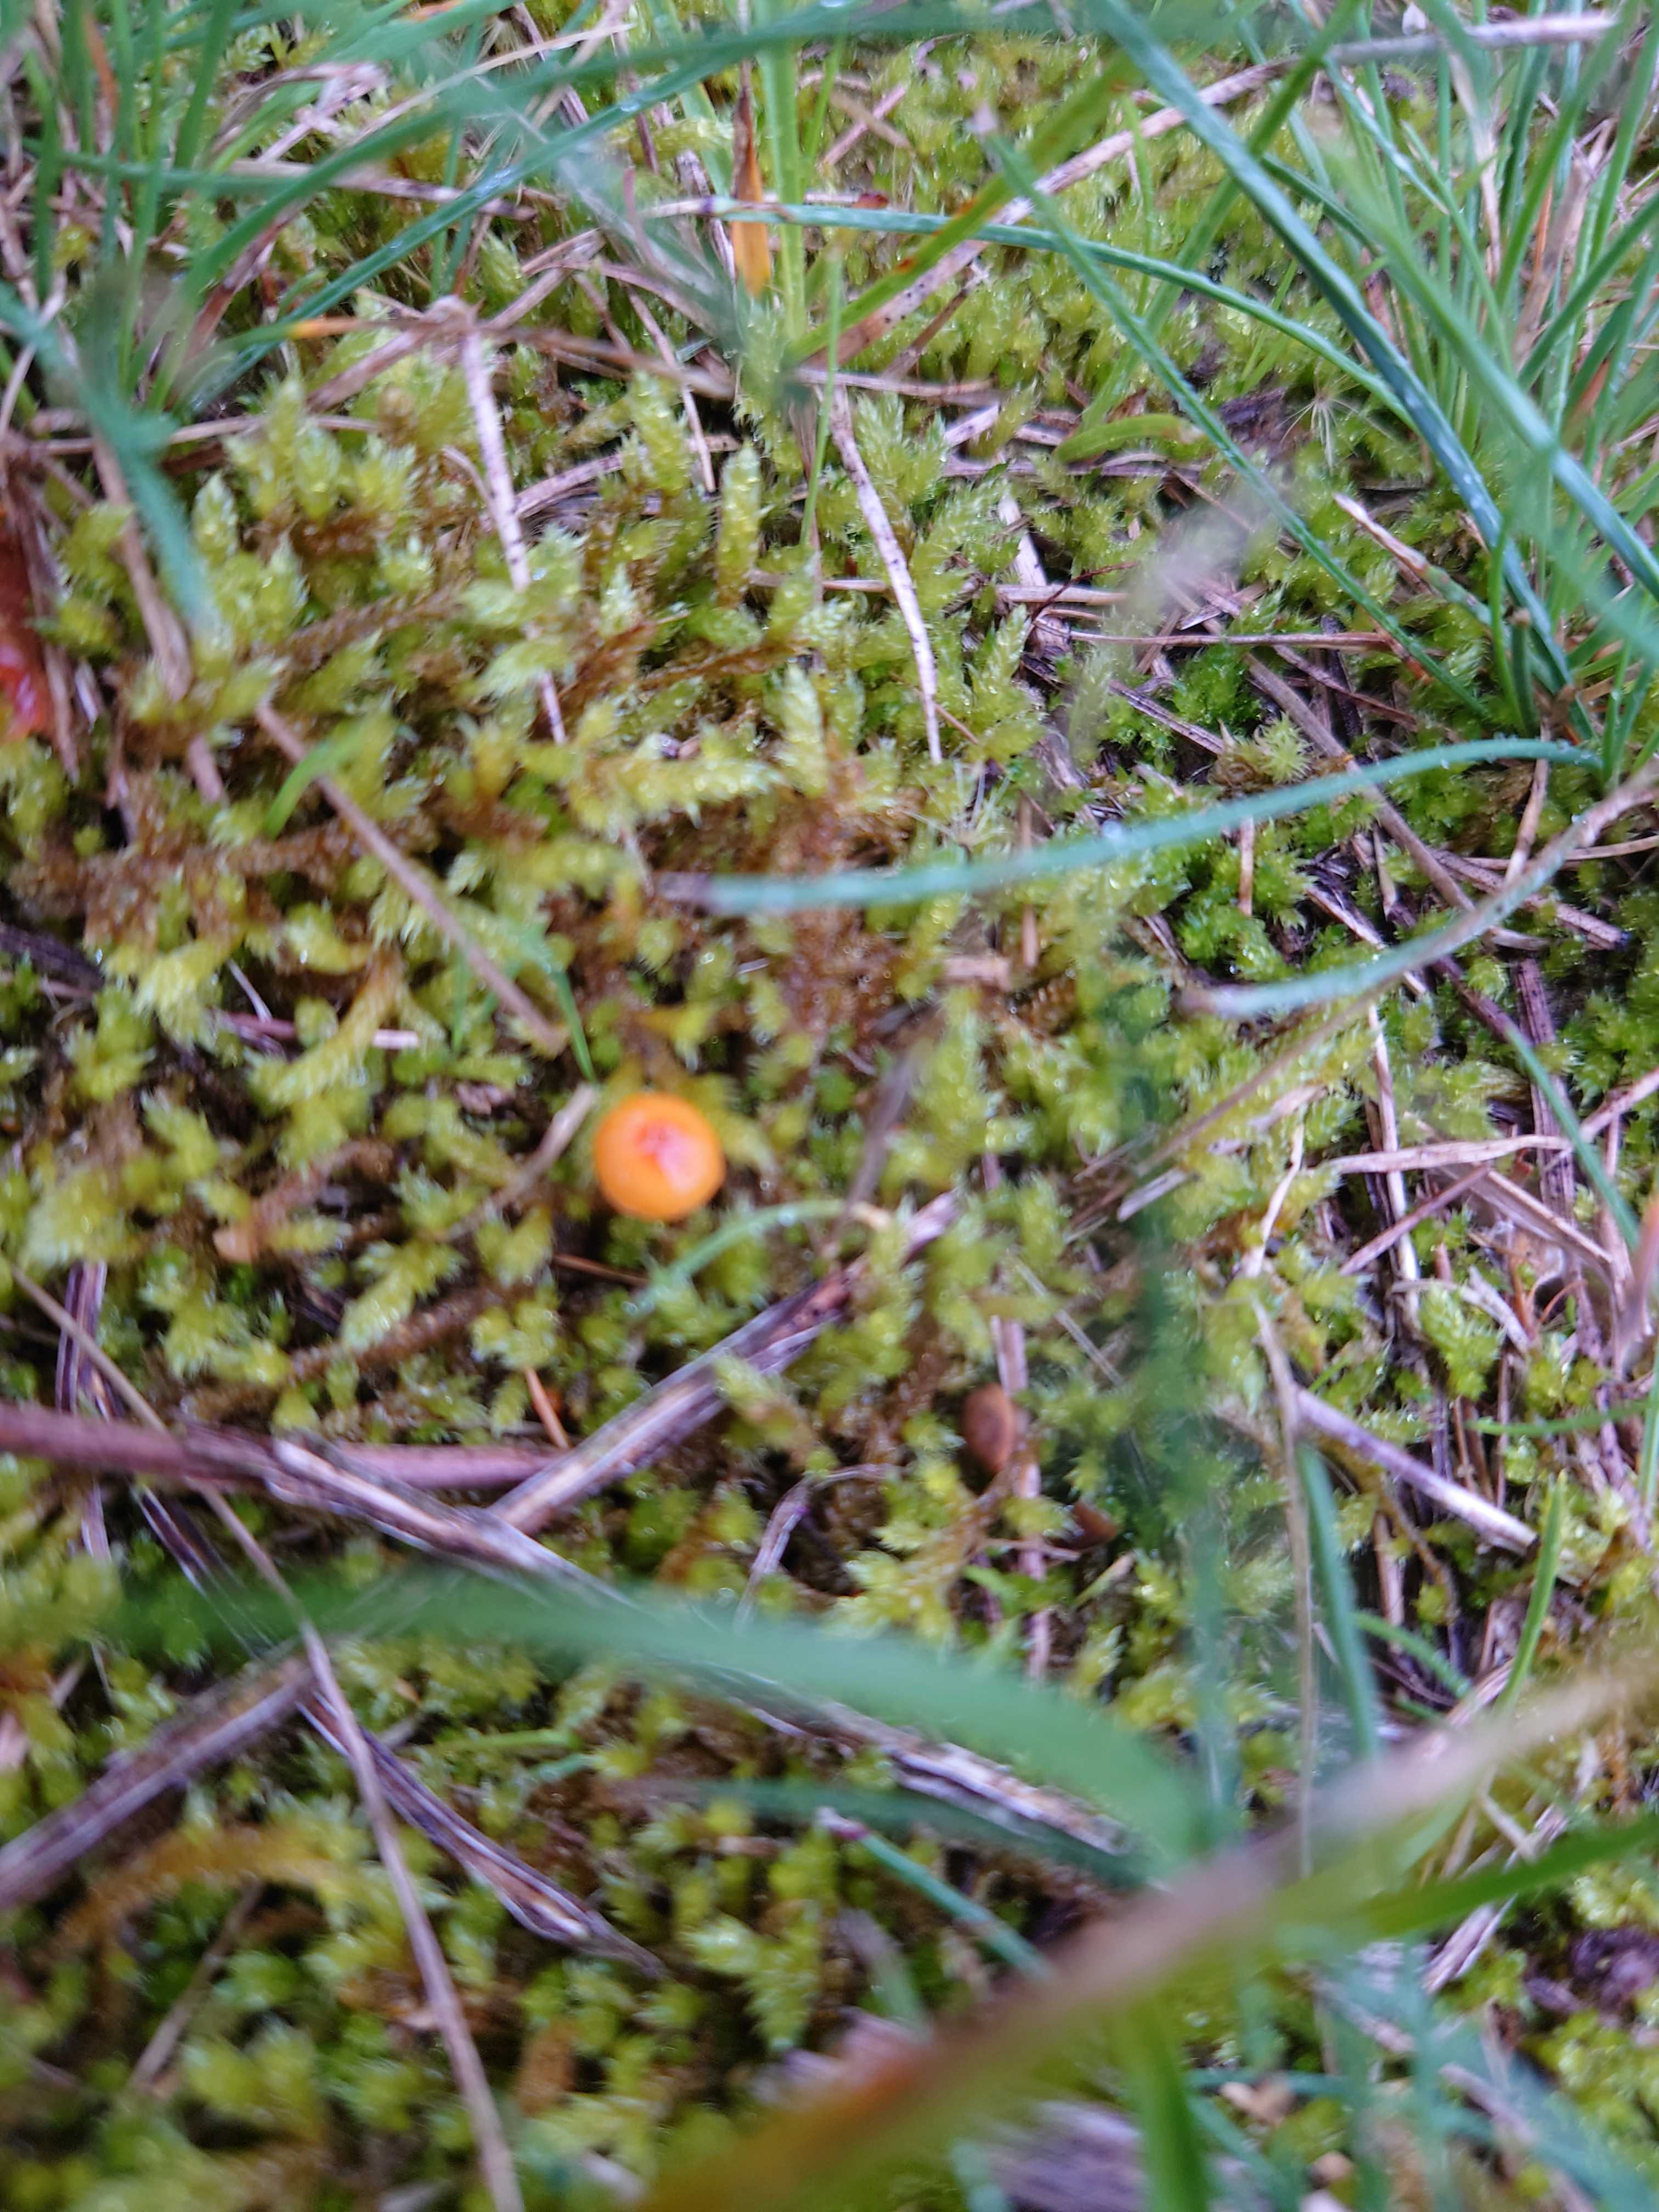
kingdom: Fungi
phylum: Basidiomycota
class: Agaricomycetes
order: Hymenochaetales
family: Rickenellaceae
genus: Rickenella
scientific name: Rickenella fibula
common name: orange mosnavlehat
